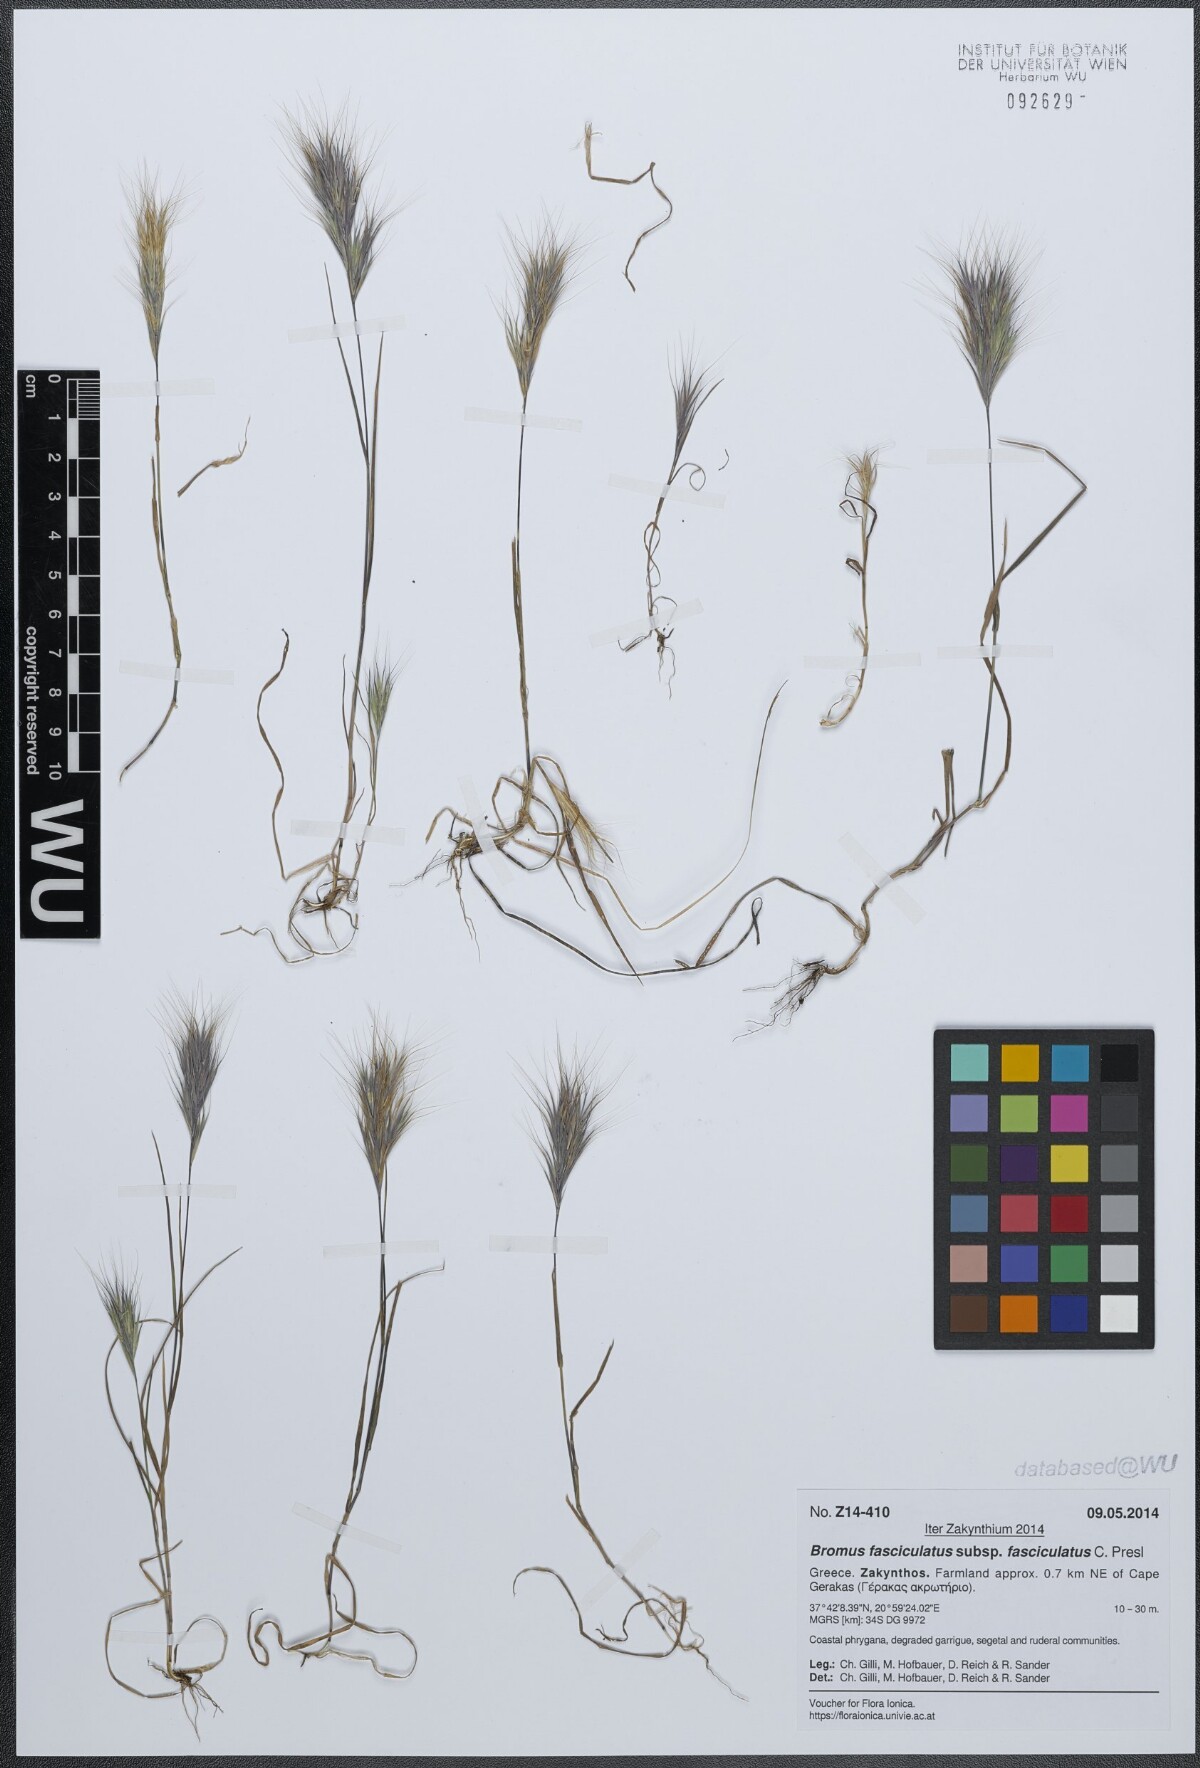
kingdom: Plantae
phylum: Tracheophyta
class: Liliopsida
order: Poales
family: Poaceae
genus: Bromus
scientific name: Bromus fasciculatus
